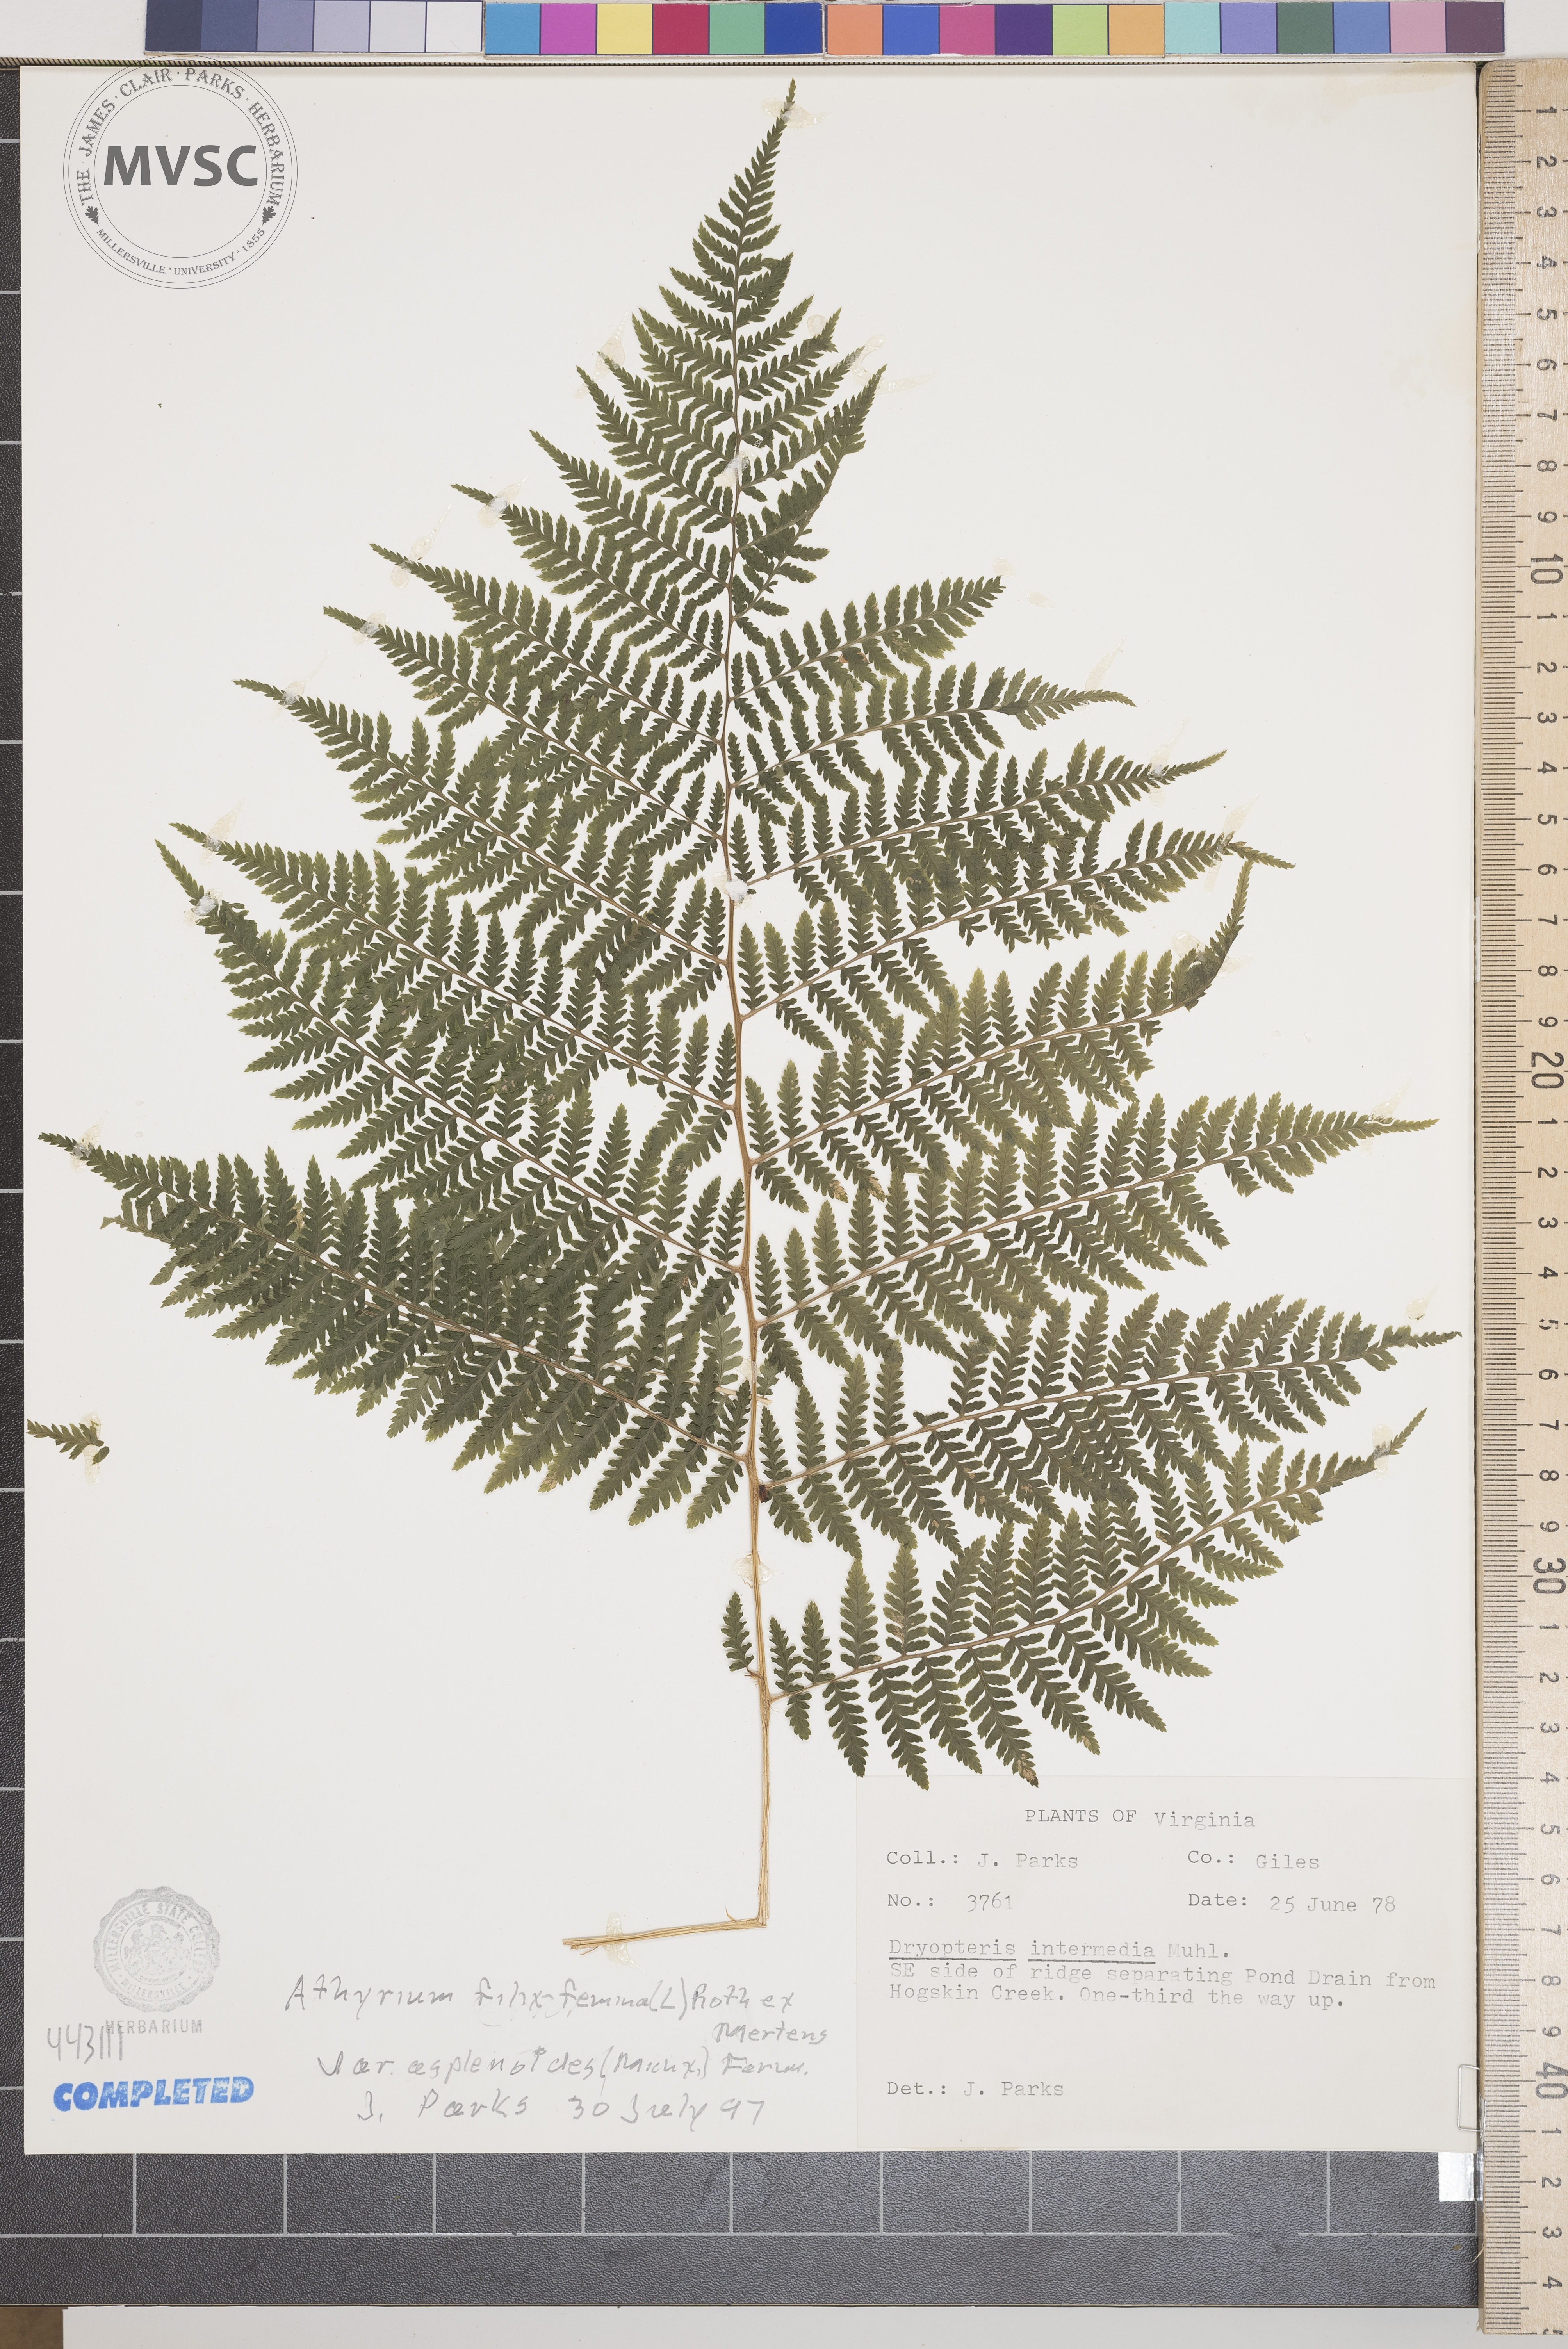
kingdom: Plantae
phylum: Tracheophyta
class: Polypodiopsida
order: Polypodiales
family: Athyriaceae
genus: Athyrium
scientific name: Athyrium filix-femina
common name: Lady fern
